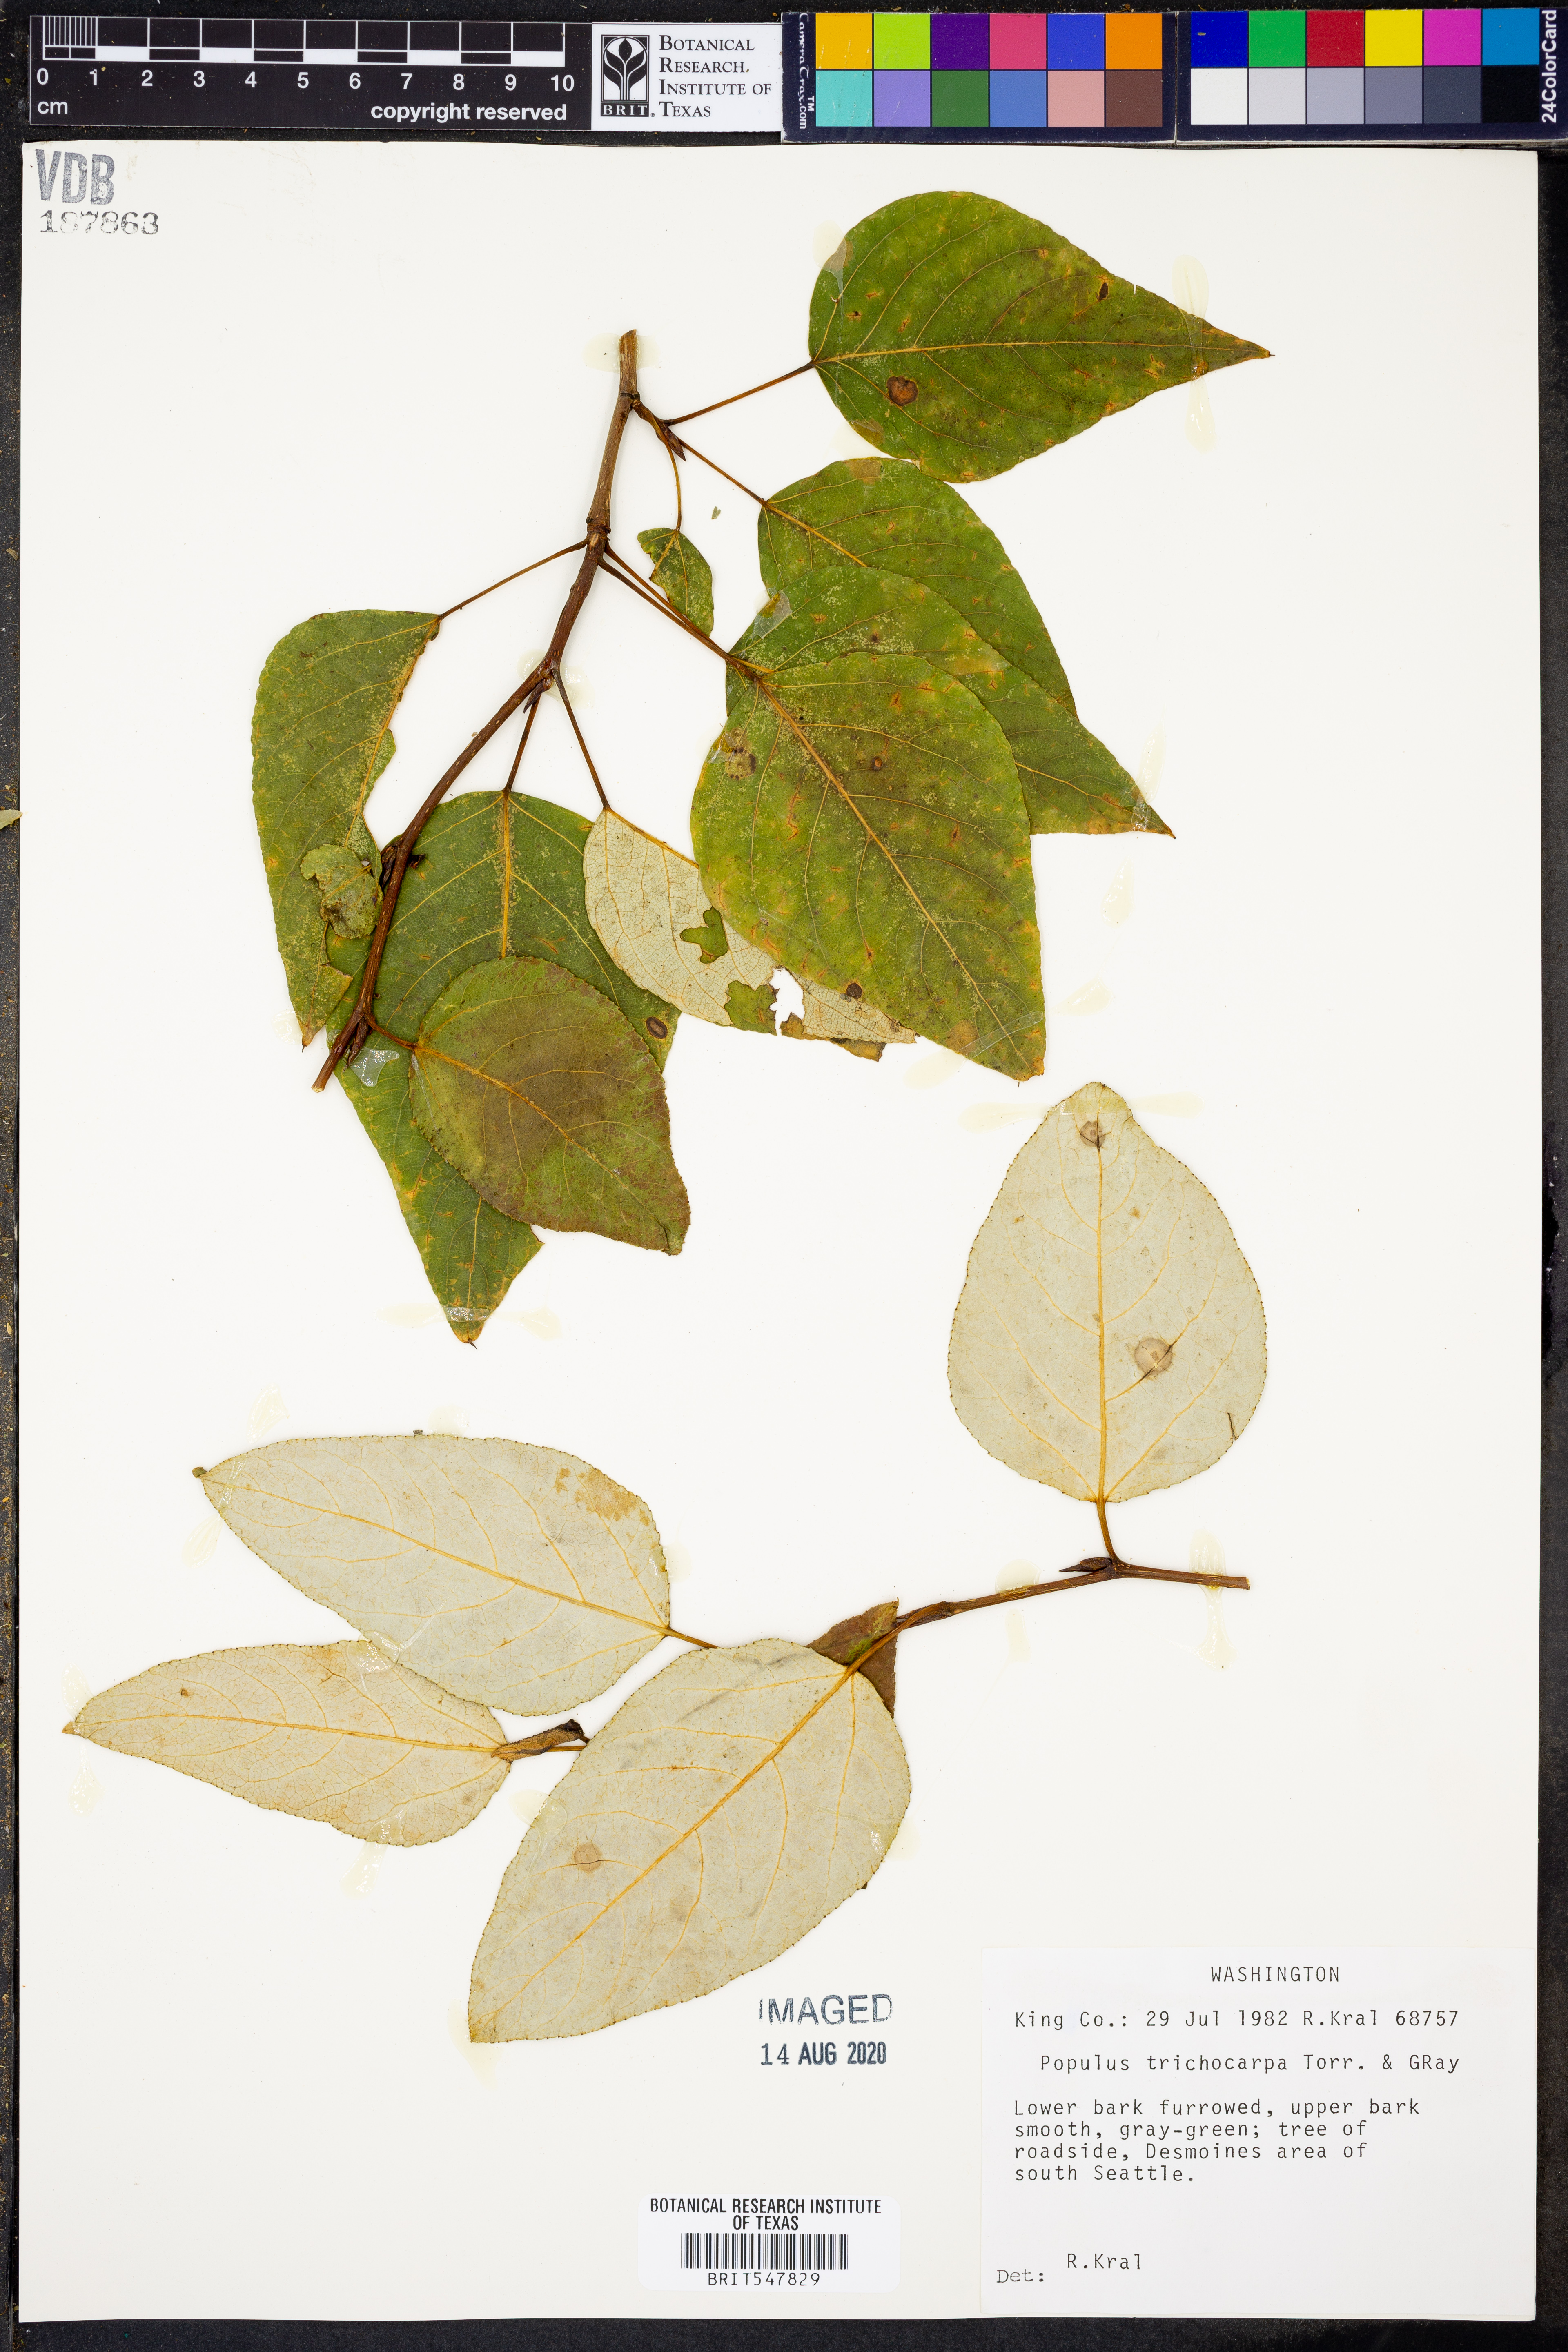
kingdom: Plantae
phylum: Tracheophyta
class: Magnoliopsida
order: Malpighiales
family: Salicaceae
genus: Populus
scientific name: Populus trichocarpa
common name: Black cottonwood
